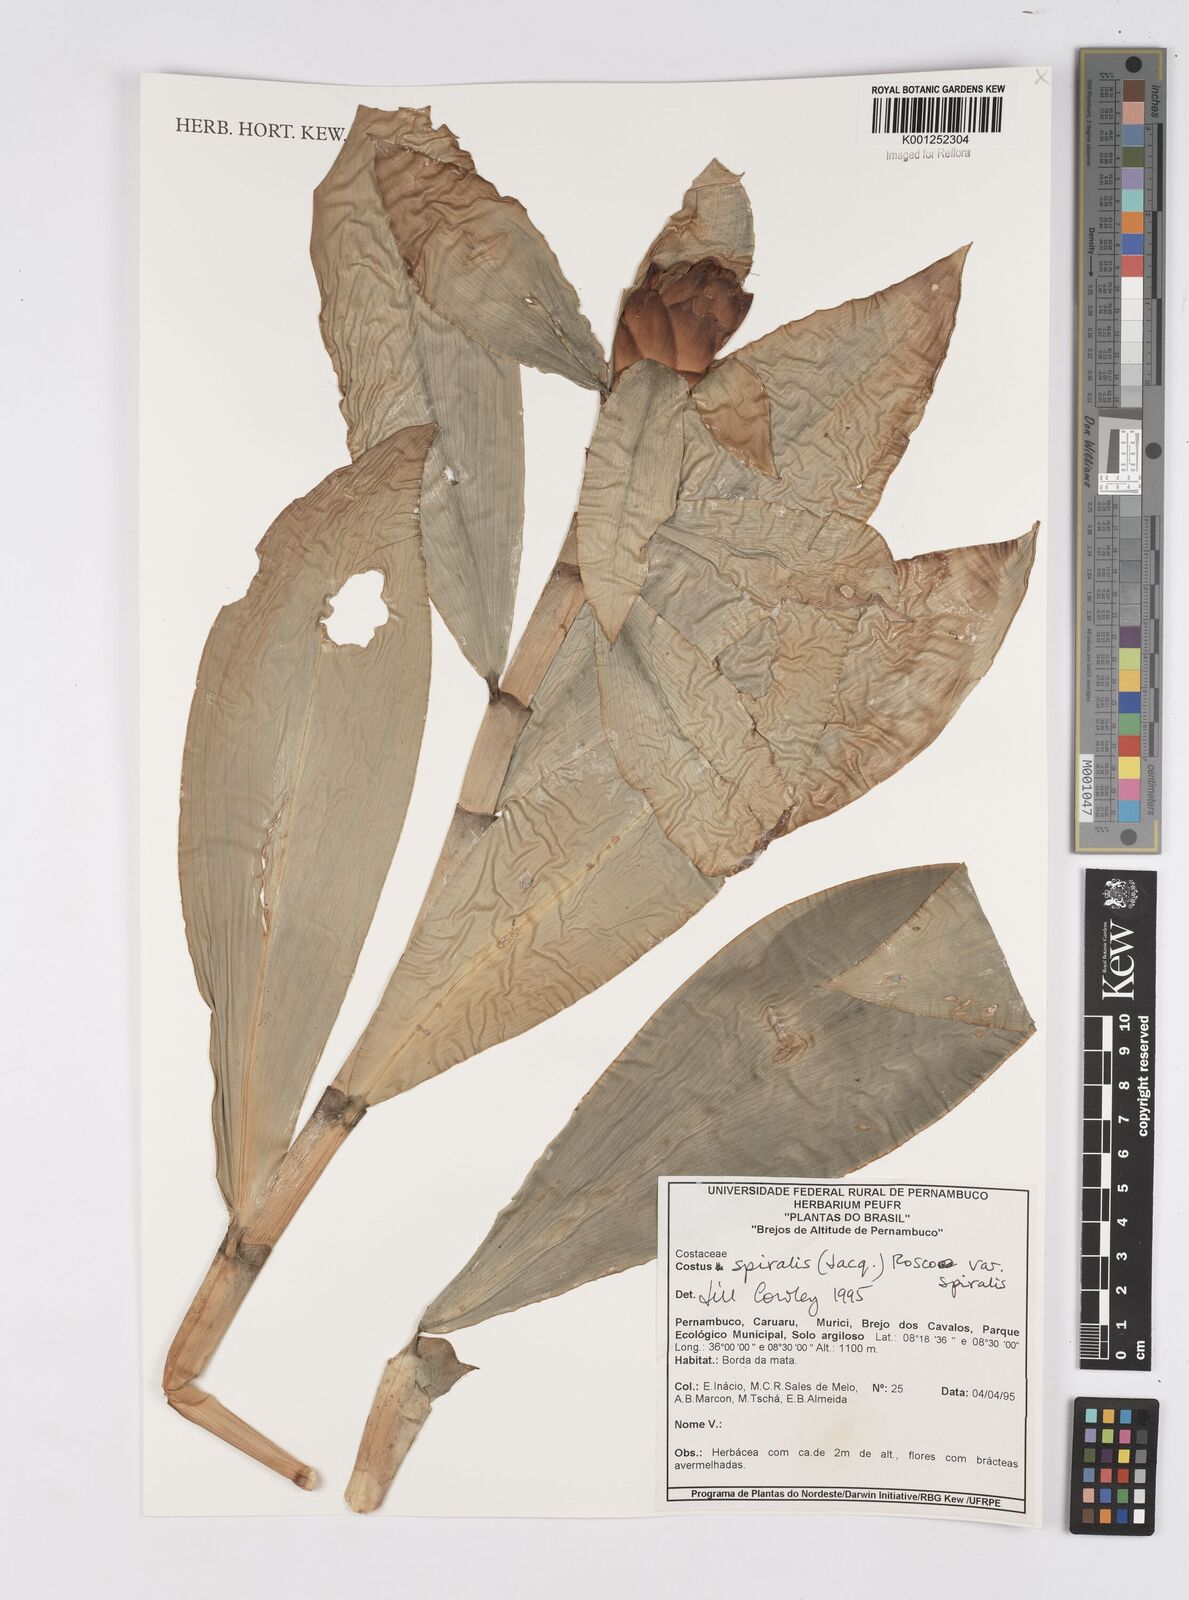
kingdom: Plantae
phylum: Tracheophyta
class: Liliopsida
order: Zingiberales
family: Costaceae
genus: Costus
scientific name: Costus spiralis
